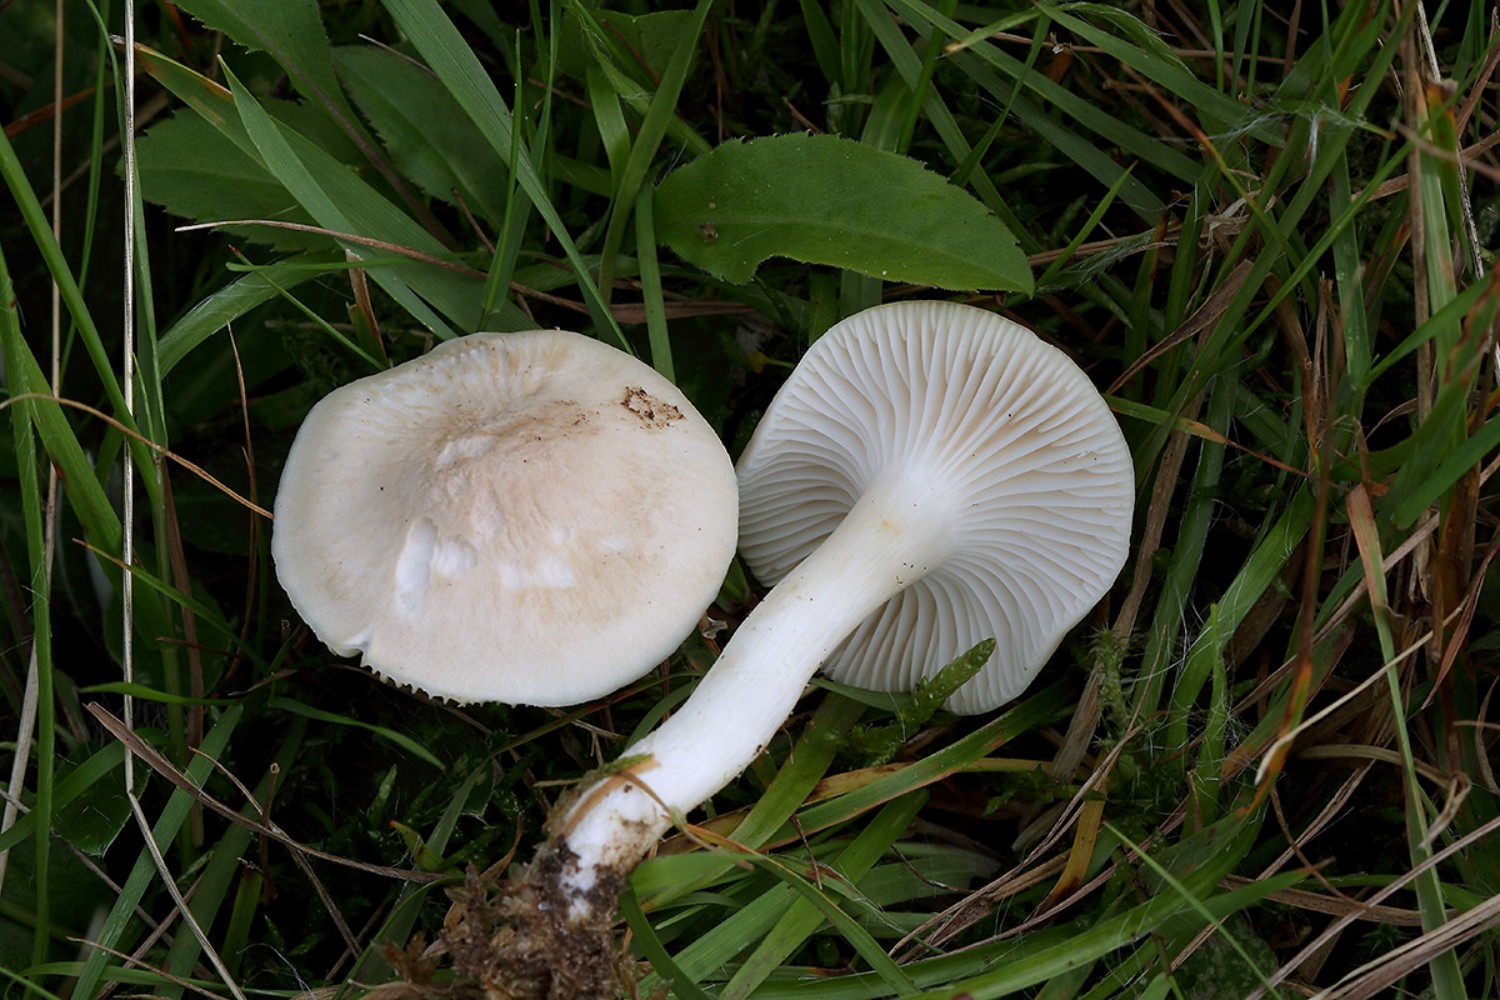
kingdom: Fungi
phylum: Basidiomycota
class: Agaricomycetes
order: Agaricales
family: Hygrophoraceae
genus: Cuphophyllus
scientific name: Cuphophyllus virgineus
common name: snehvid vokshat
